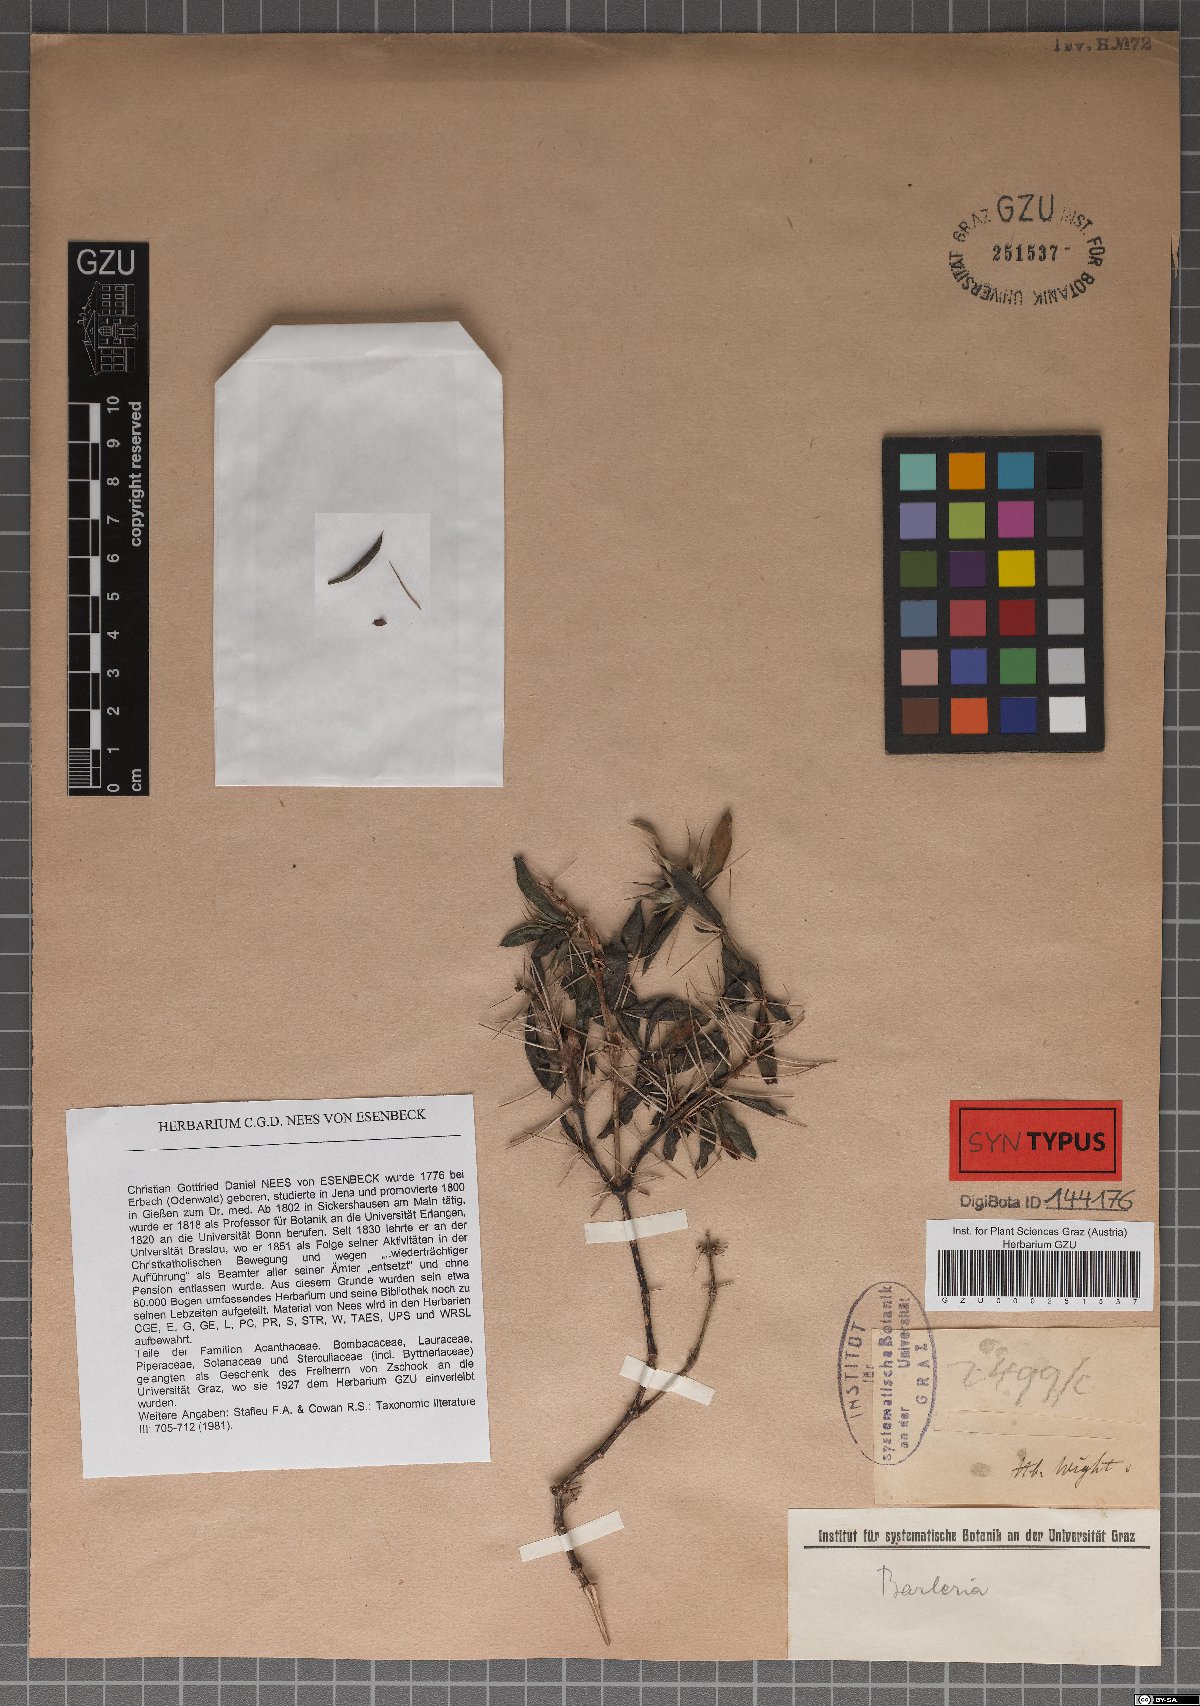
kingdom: Plantae
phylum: Tracheophyta
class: Magnoliopsida
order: Lamiales
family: Acanthaceae
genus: Barleria
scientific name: Barleria cuspidata
